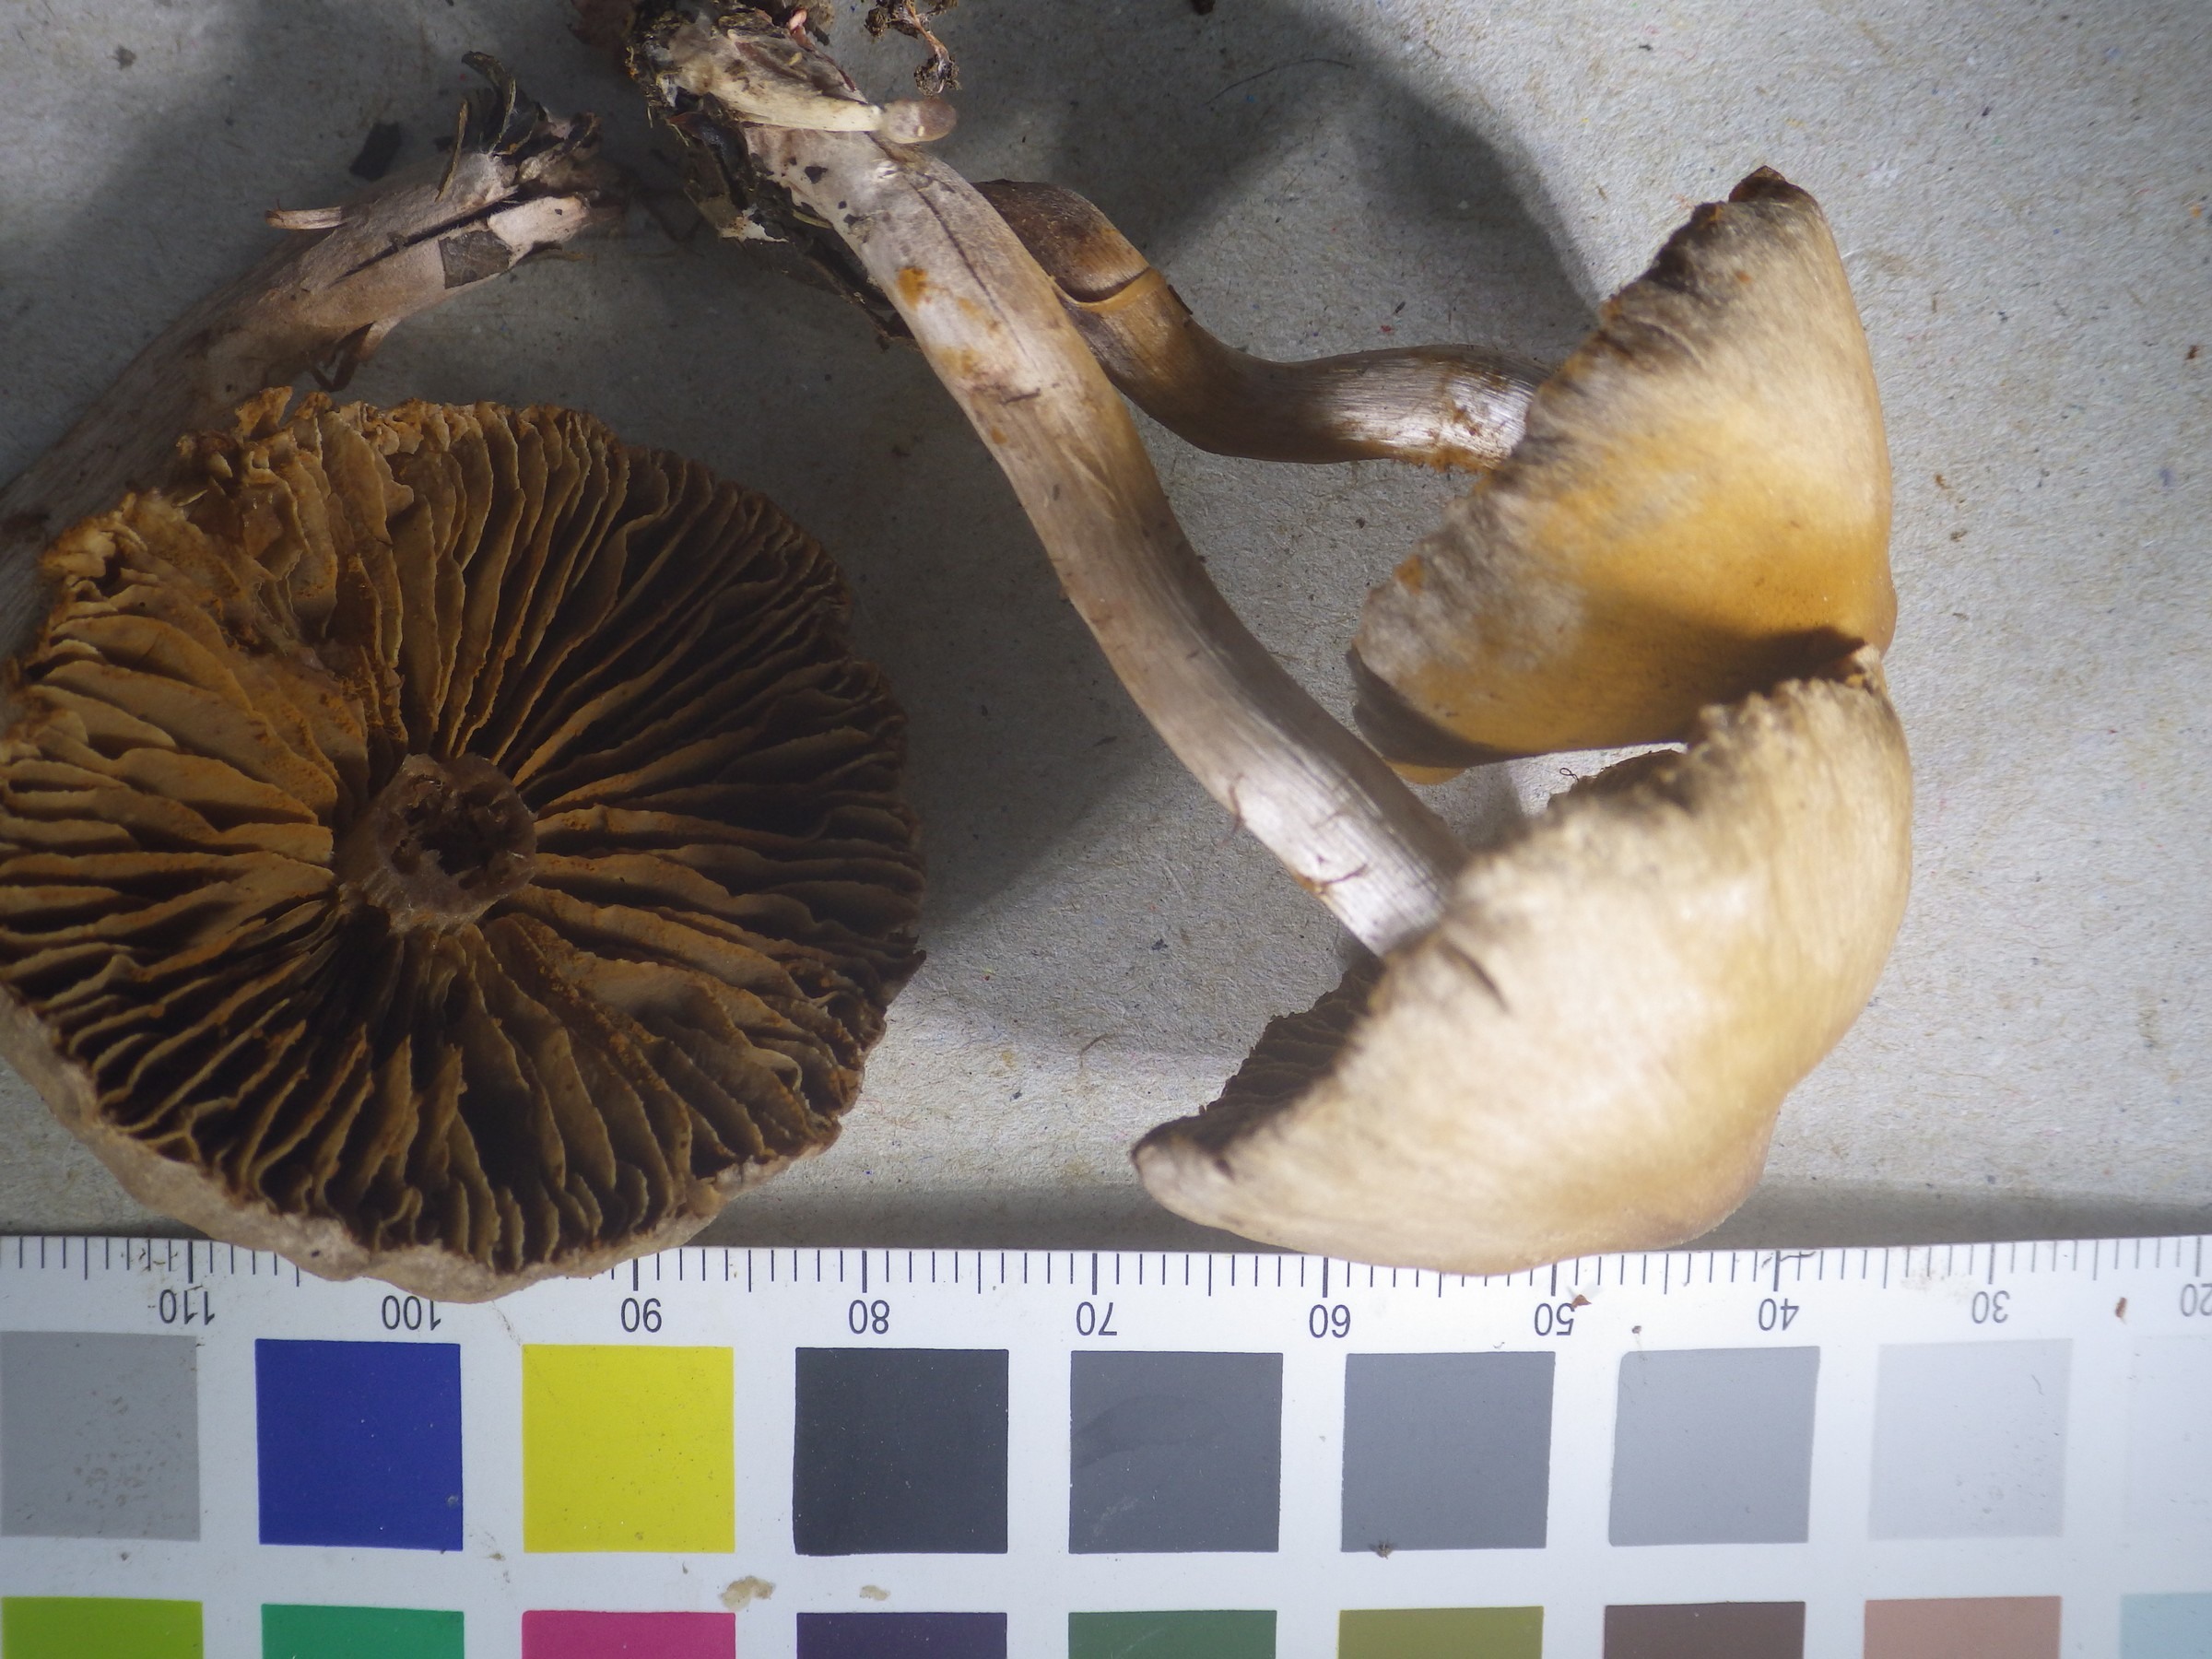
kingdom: Fungi
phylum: Basidiomycota
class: Agaricomycetes
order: Agaricales
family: Cortinariaceae
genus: Cortinarius
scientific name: Cortinarius
